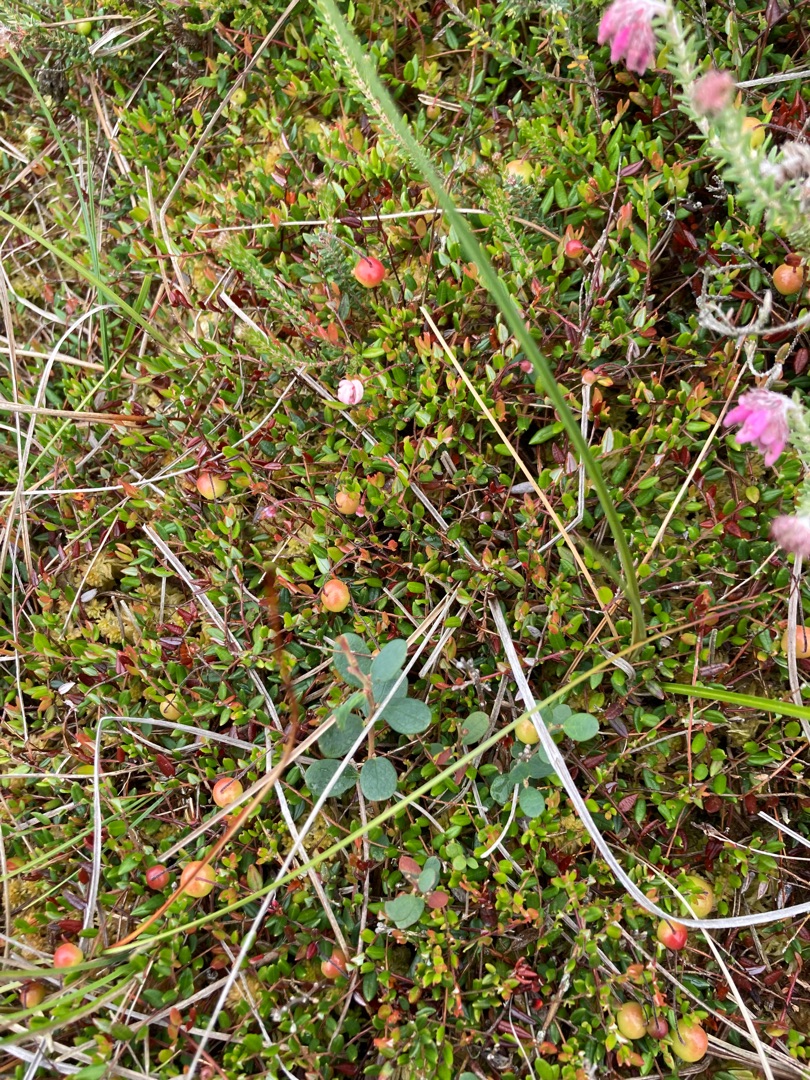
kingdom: Plantae
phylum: Tracheophyta
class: Magnoliopsida
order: Ericales
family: Ericaceae
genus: Vaccinium
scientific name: Vaccinium oxycoccos
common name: Tranebær
